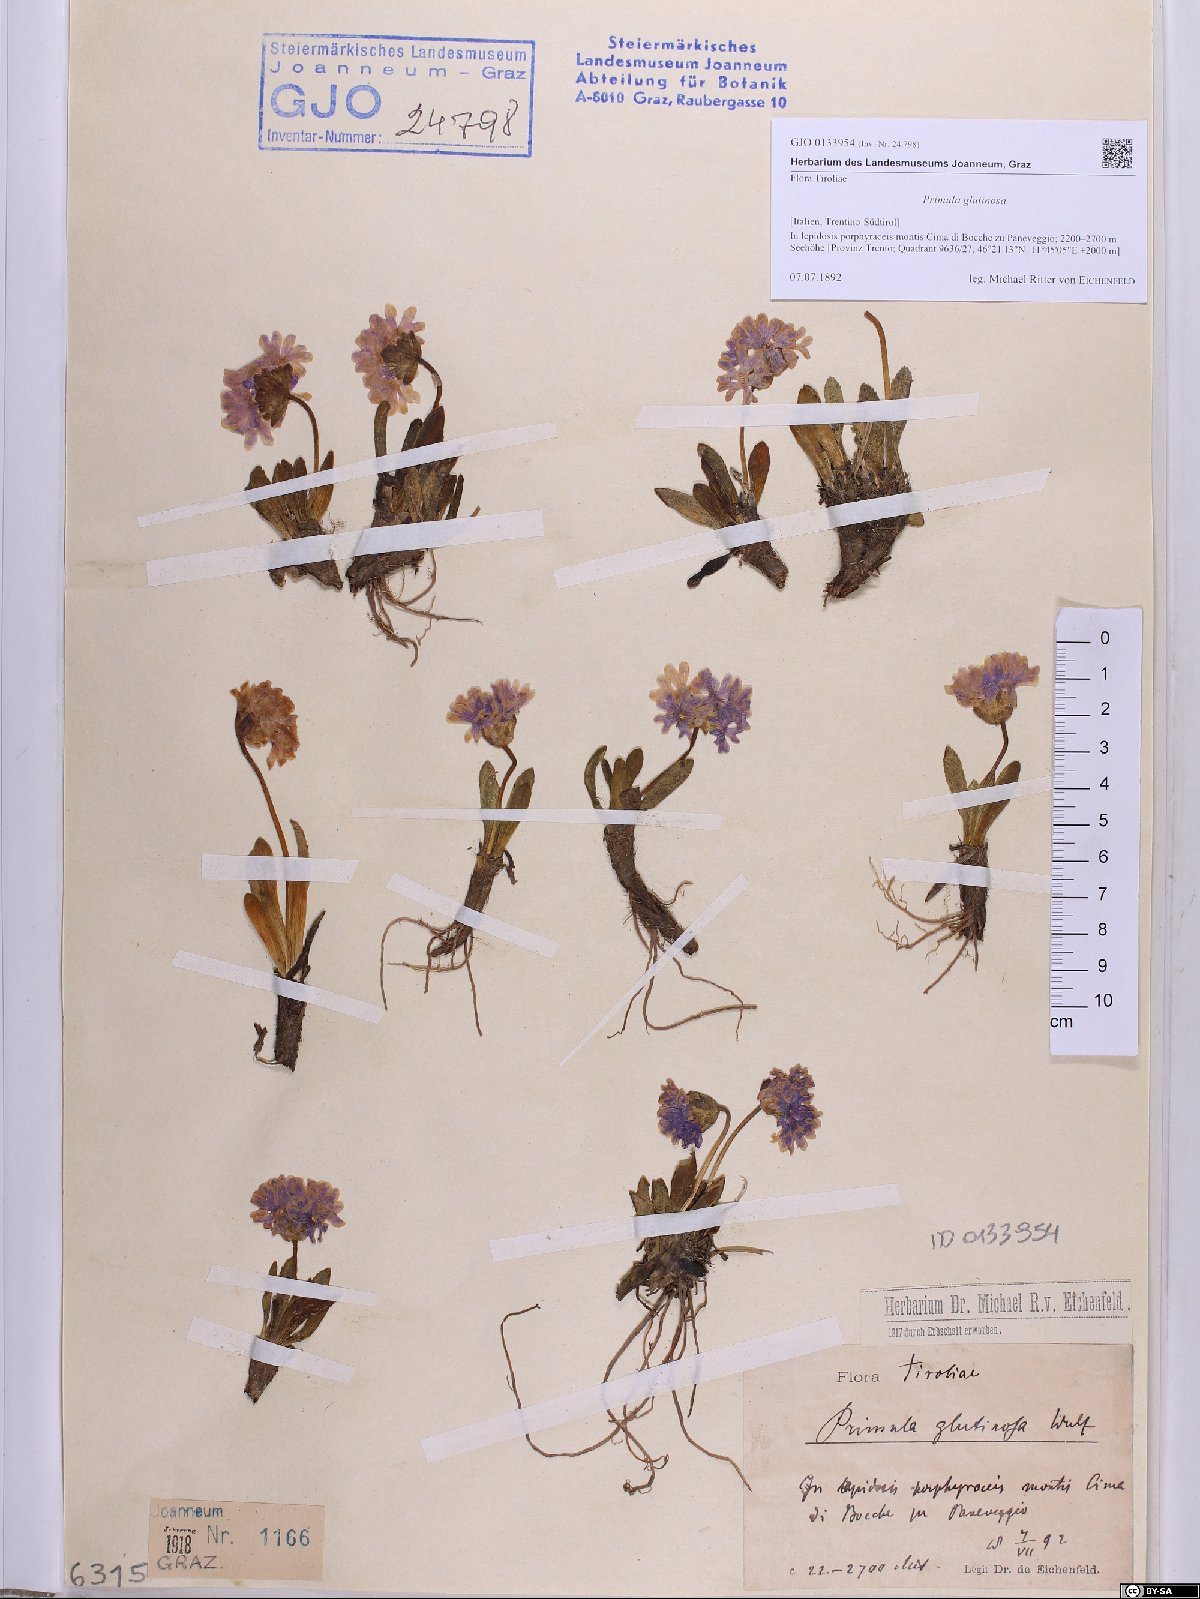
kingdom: Plantae
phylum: Tracheophyta
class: Magnoliopsida
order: Ericales
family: Primulaceae
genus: Primula
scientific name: Primula glutinosa
